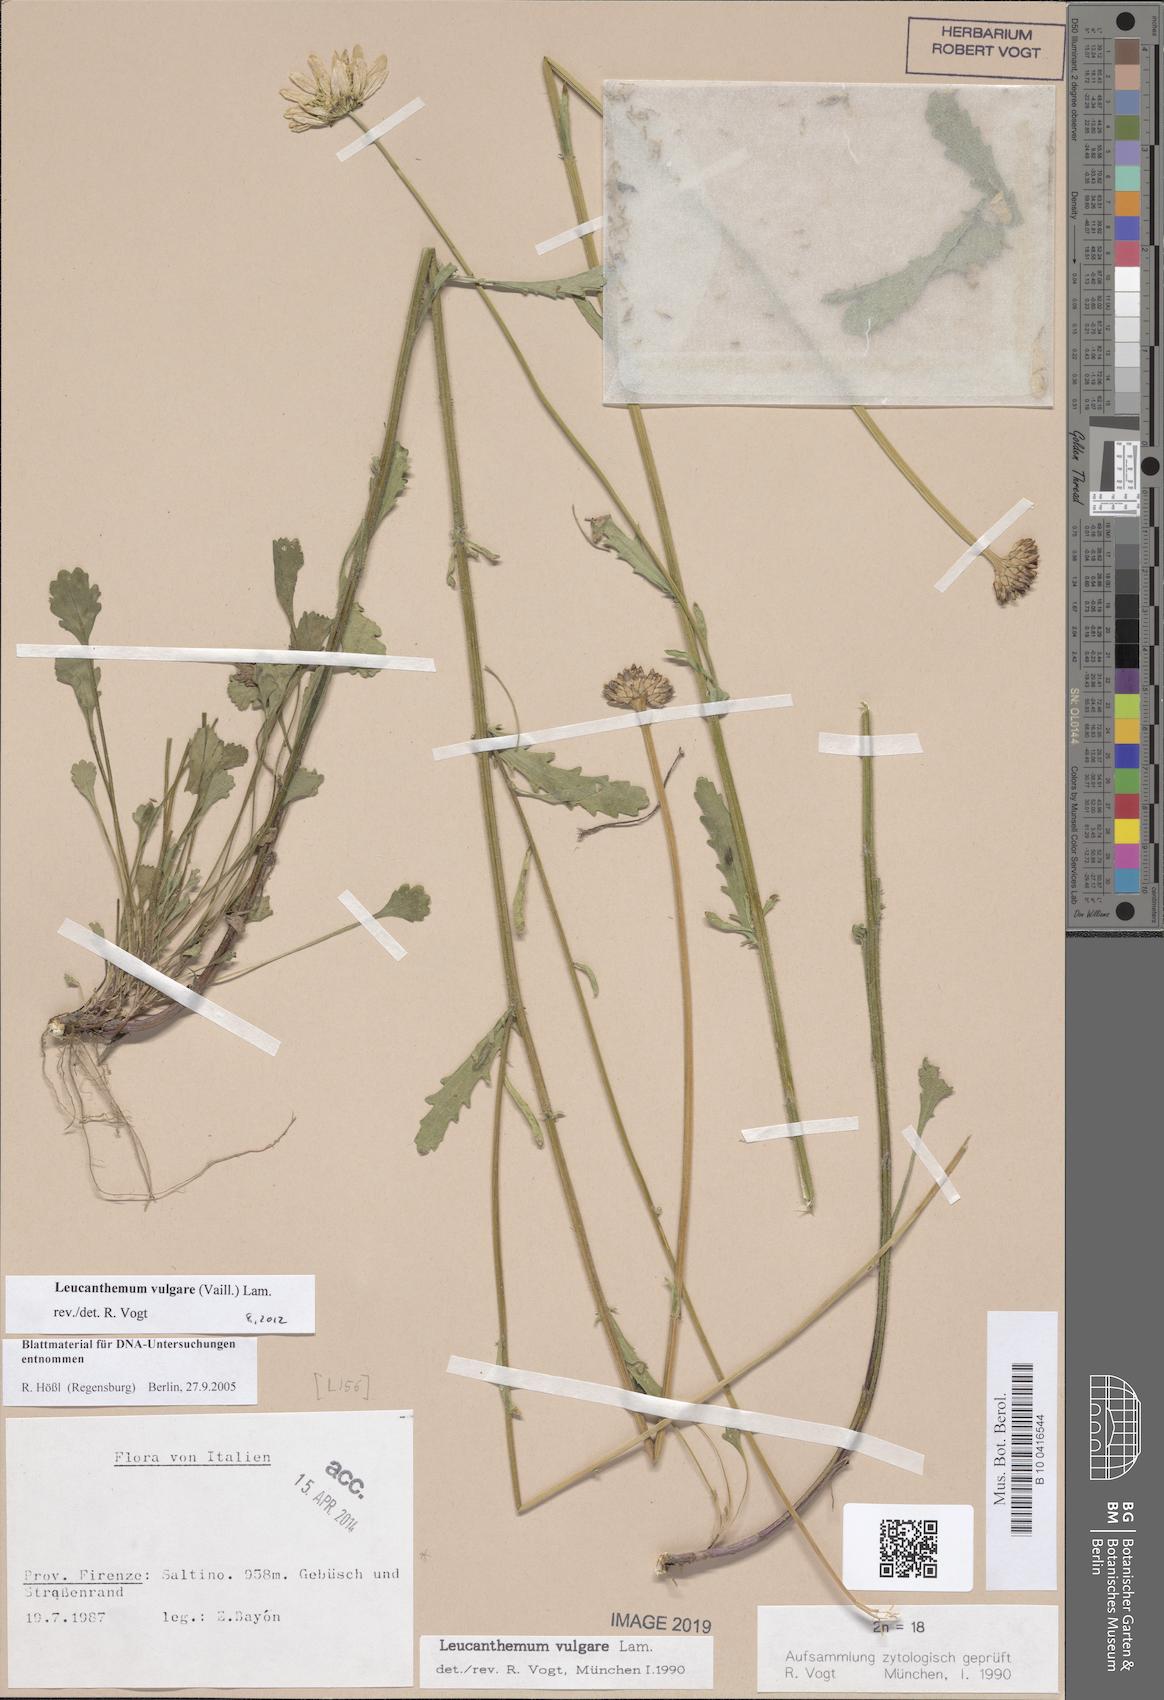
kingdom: Plantae
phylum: Tracheophyta
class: Magnoliopsida
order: Asterales
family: Asteraceae
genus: Leucanthemum
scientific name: Leucanthemum vulgare
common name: Oxeye daisy
